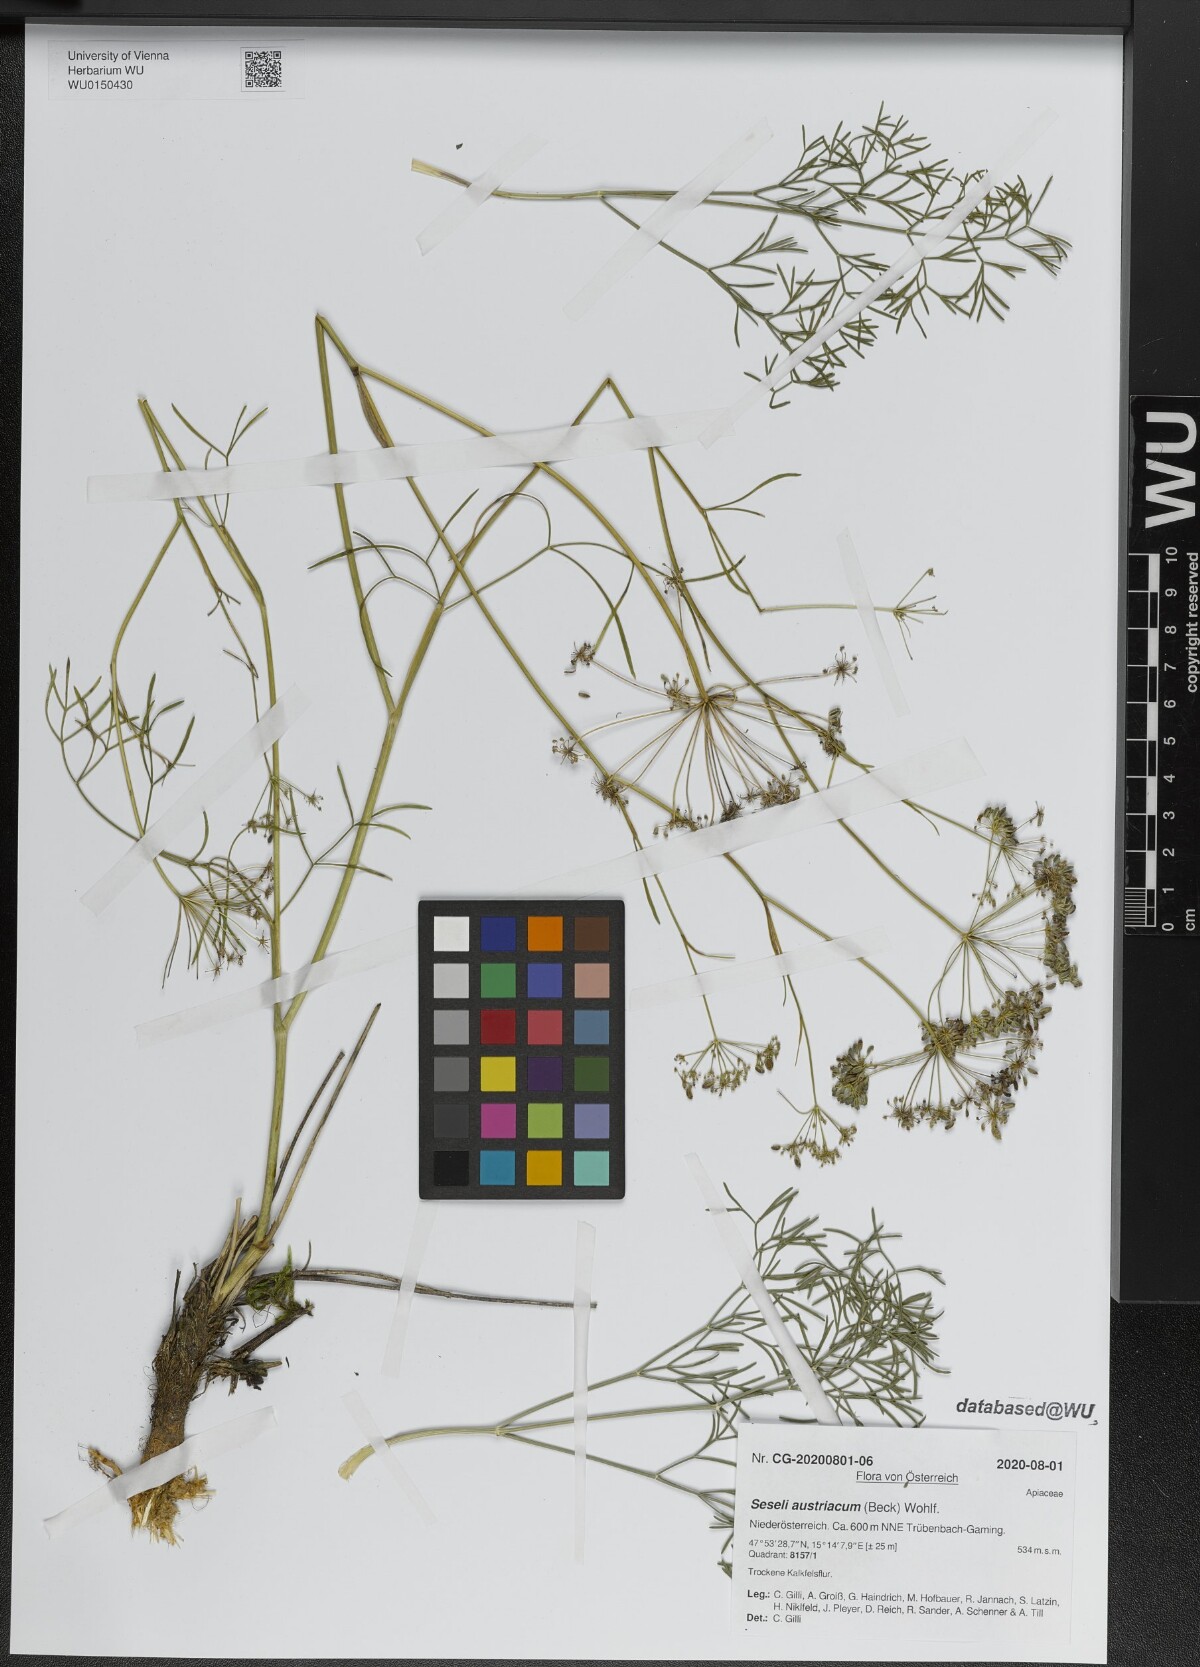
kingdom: Plantae
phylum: Tracheophyta
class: Magnoliopsida
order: Apiales
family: Apiaceae
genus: Seseli
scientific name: Seseli austriacum
